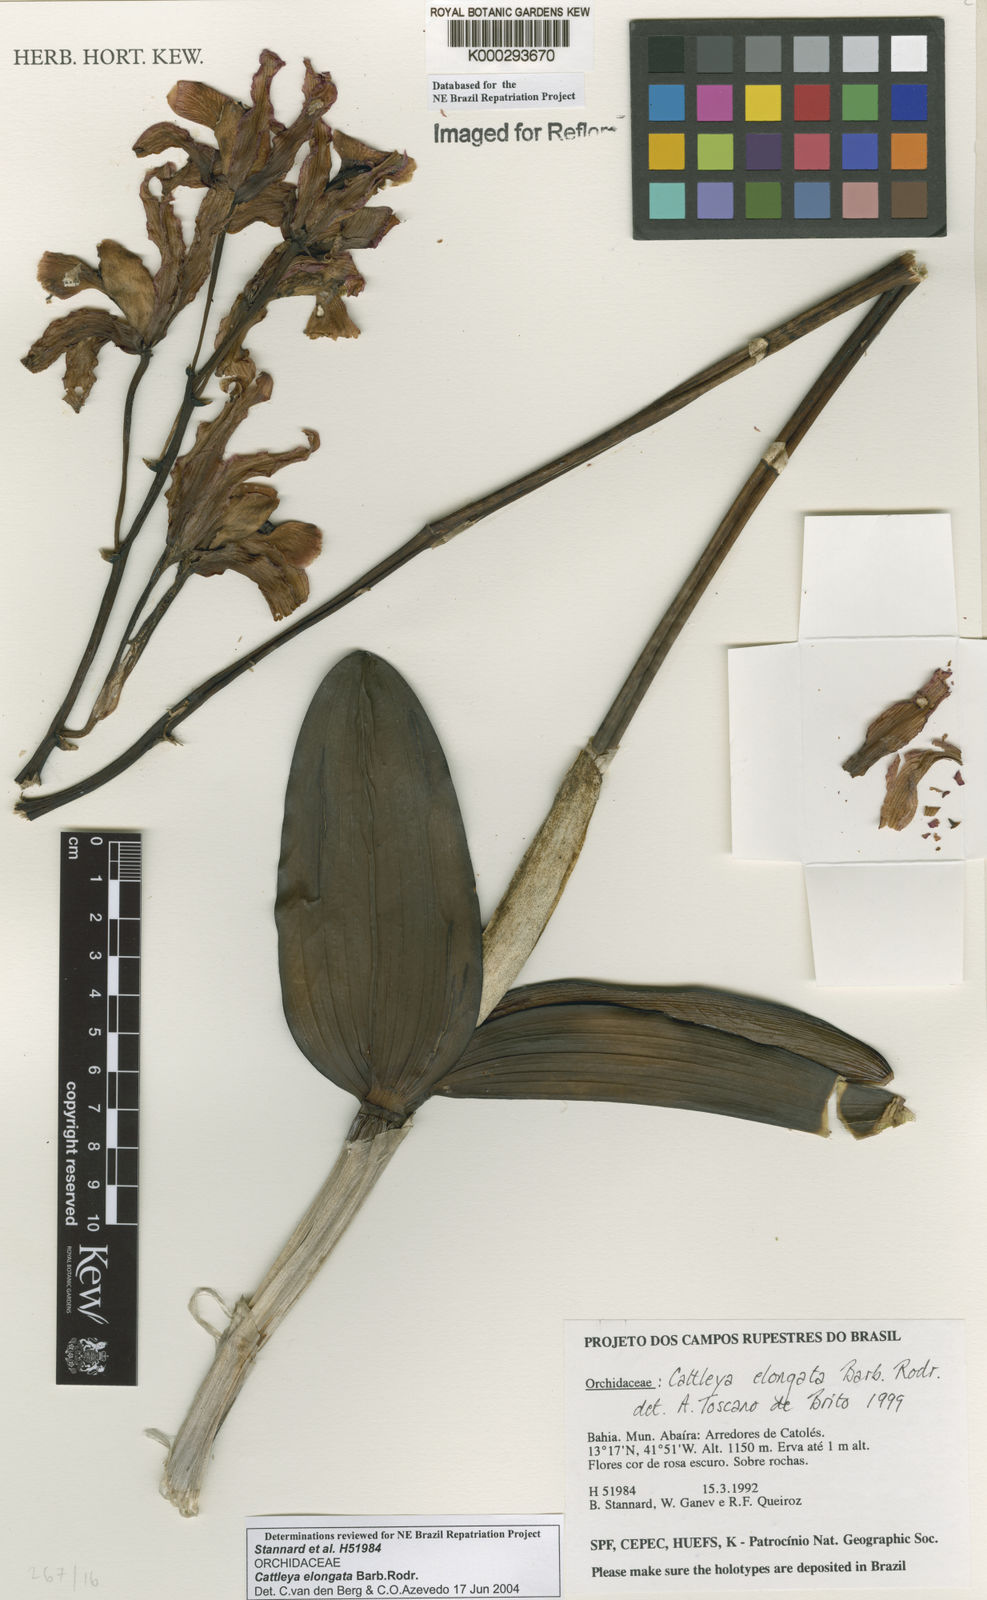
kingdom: Plantae
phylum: Tracheophyta
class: Liliopsida
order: Asparagales
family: Orchidaceae
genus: Cattleya
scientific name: Cattleya elongata
